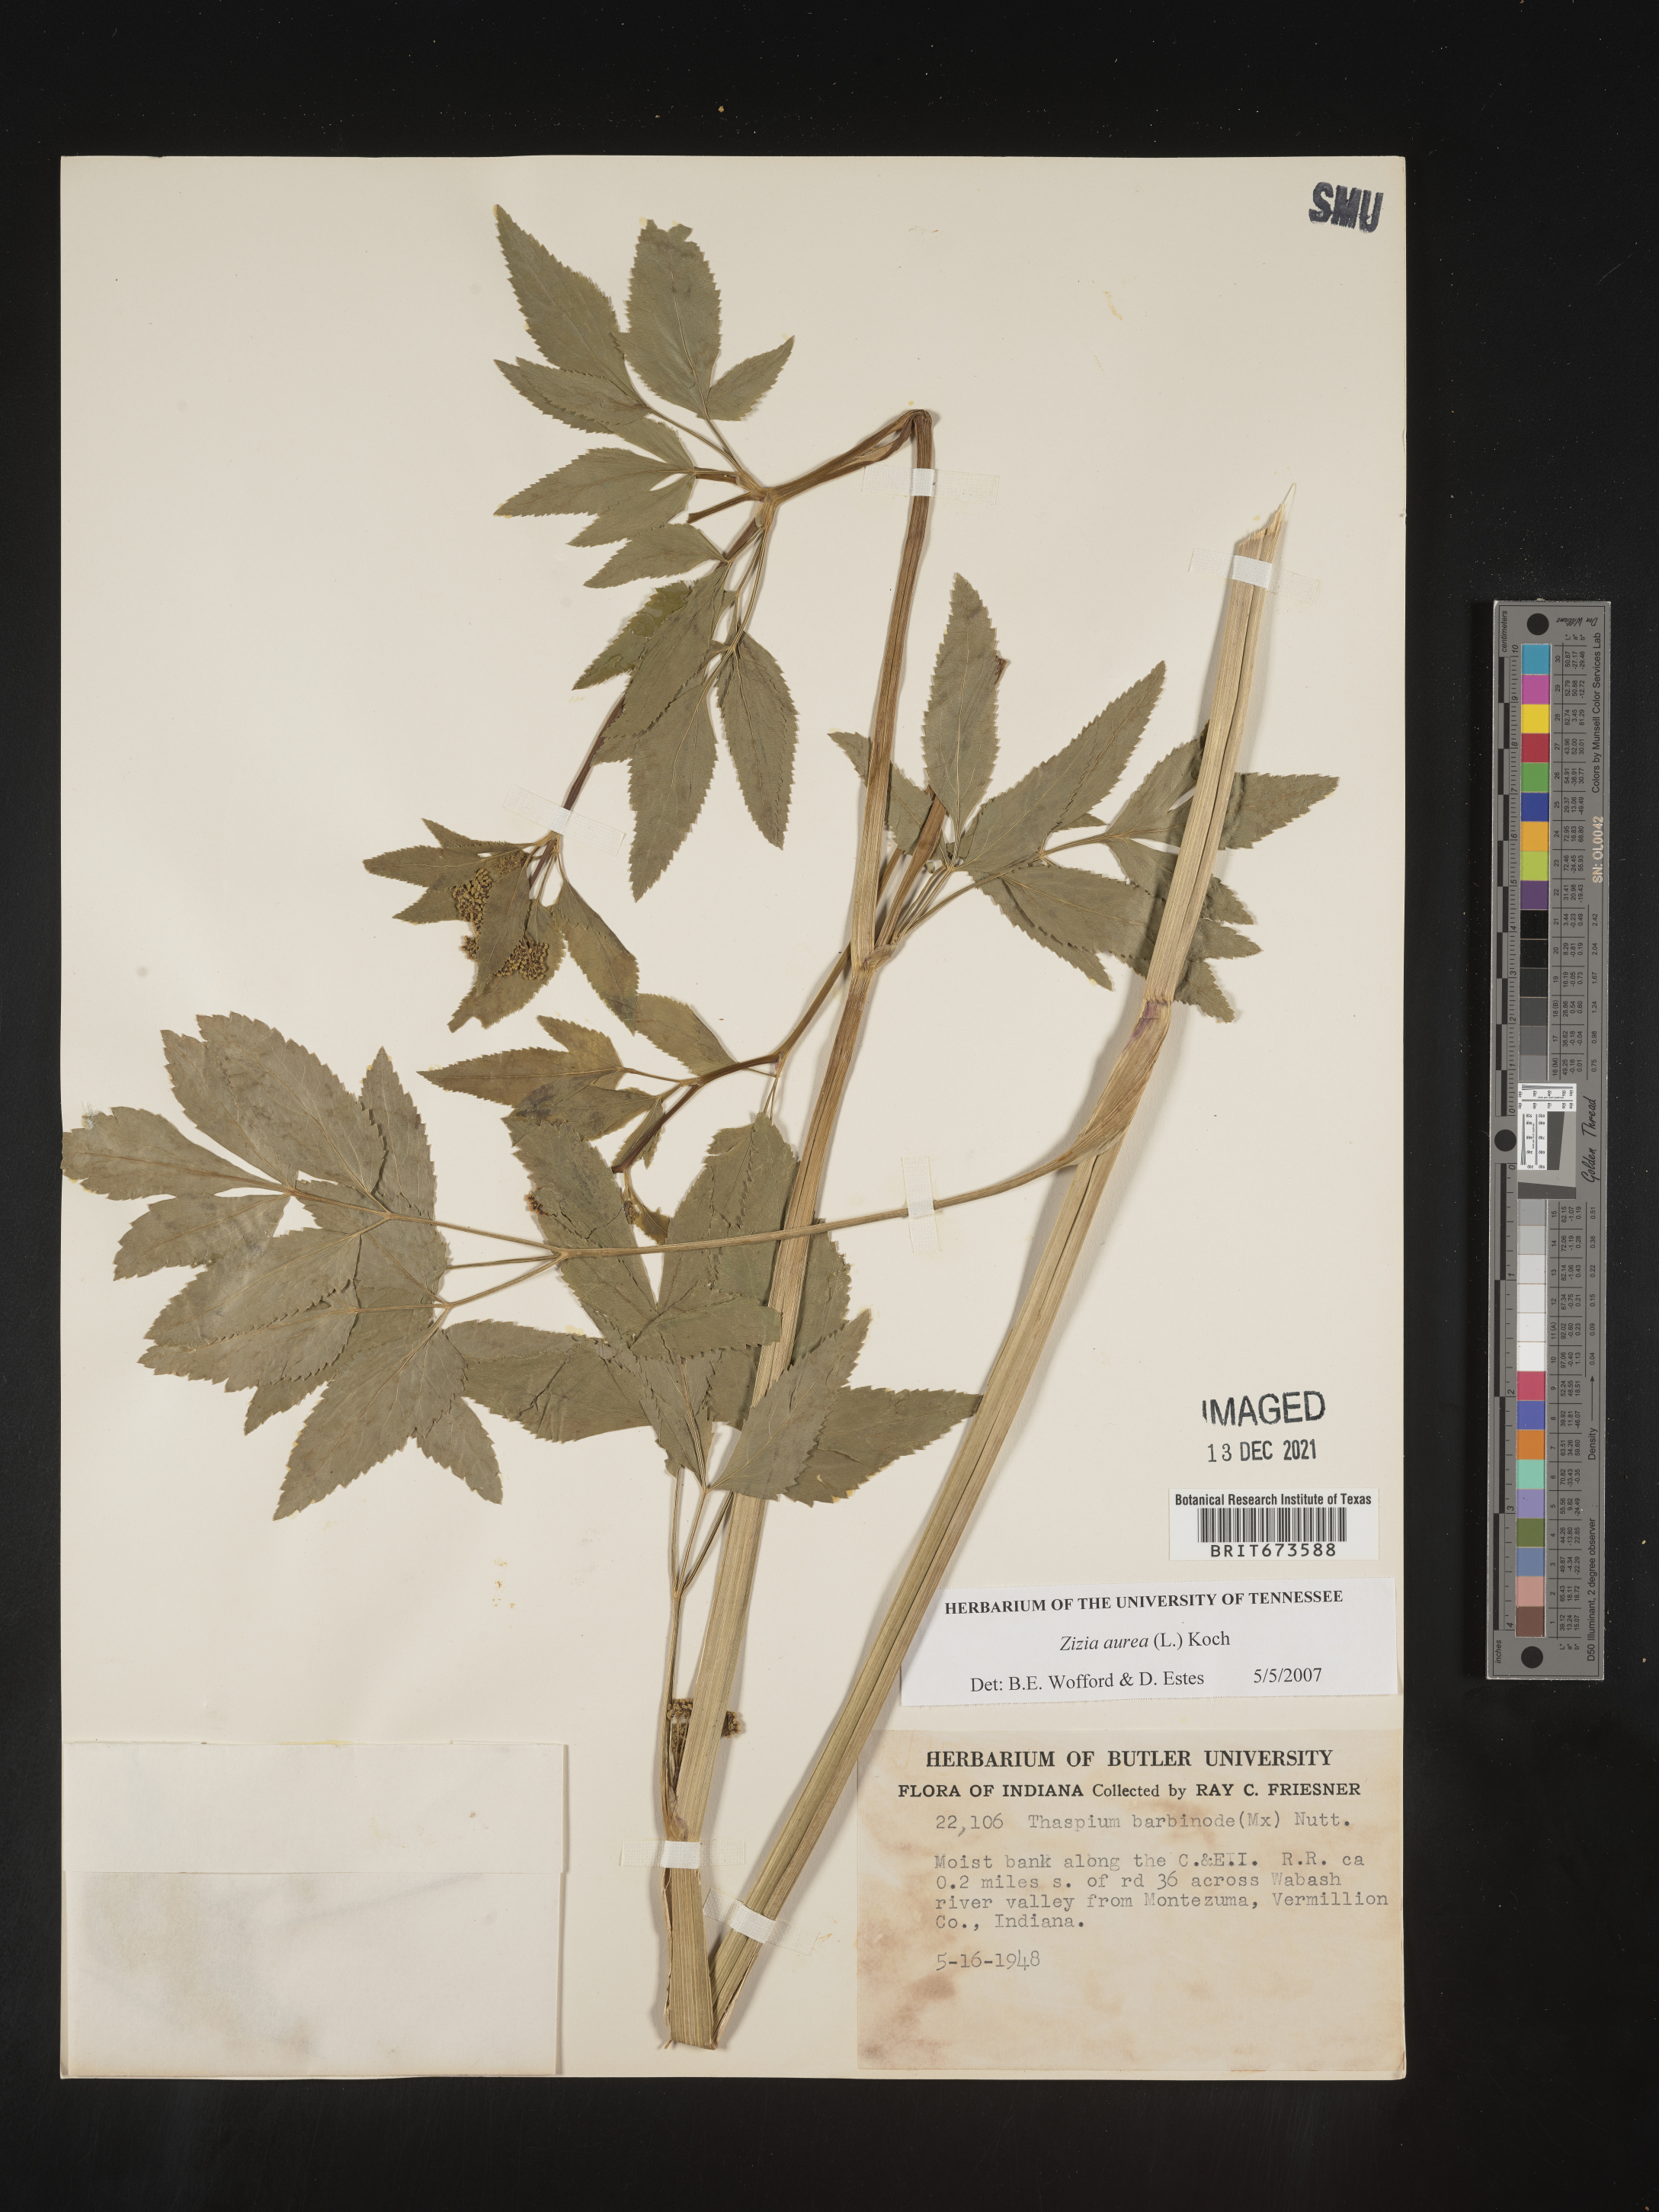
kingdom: Plantae
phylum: Tracheophyta
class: Magnoliopsida
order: Apiales
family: Apiaceae
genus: Zizia
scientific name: Zizia aurea
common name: Golden alexanders
